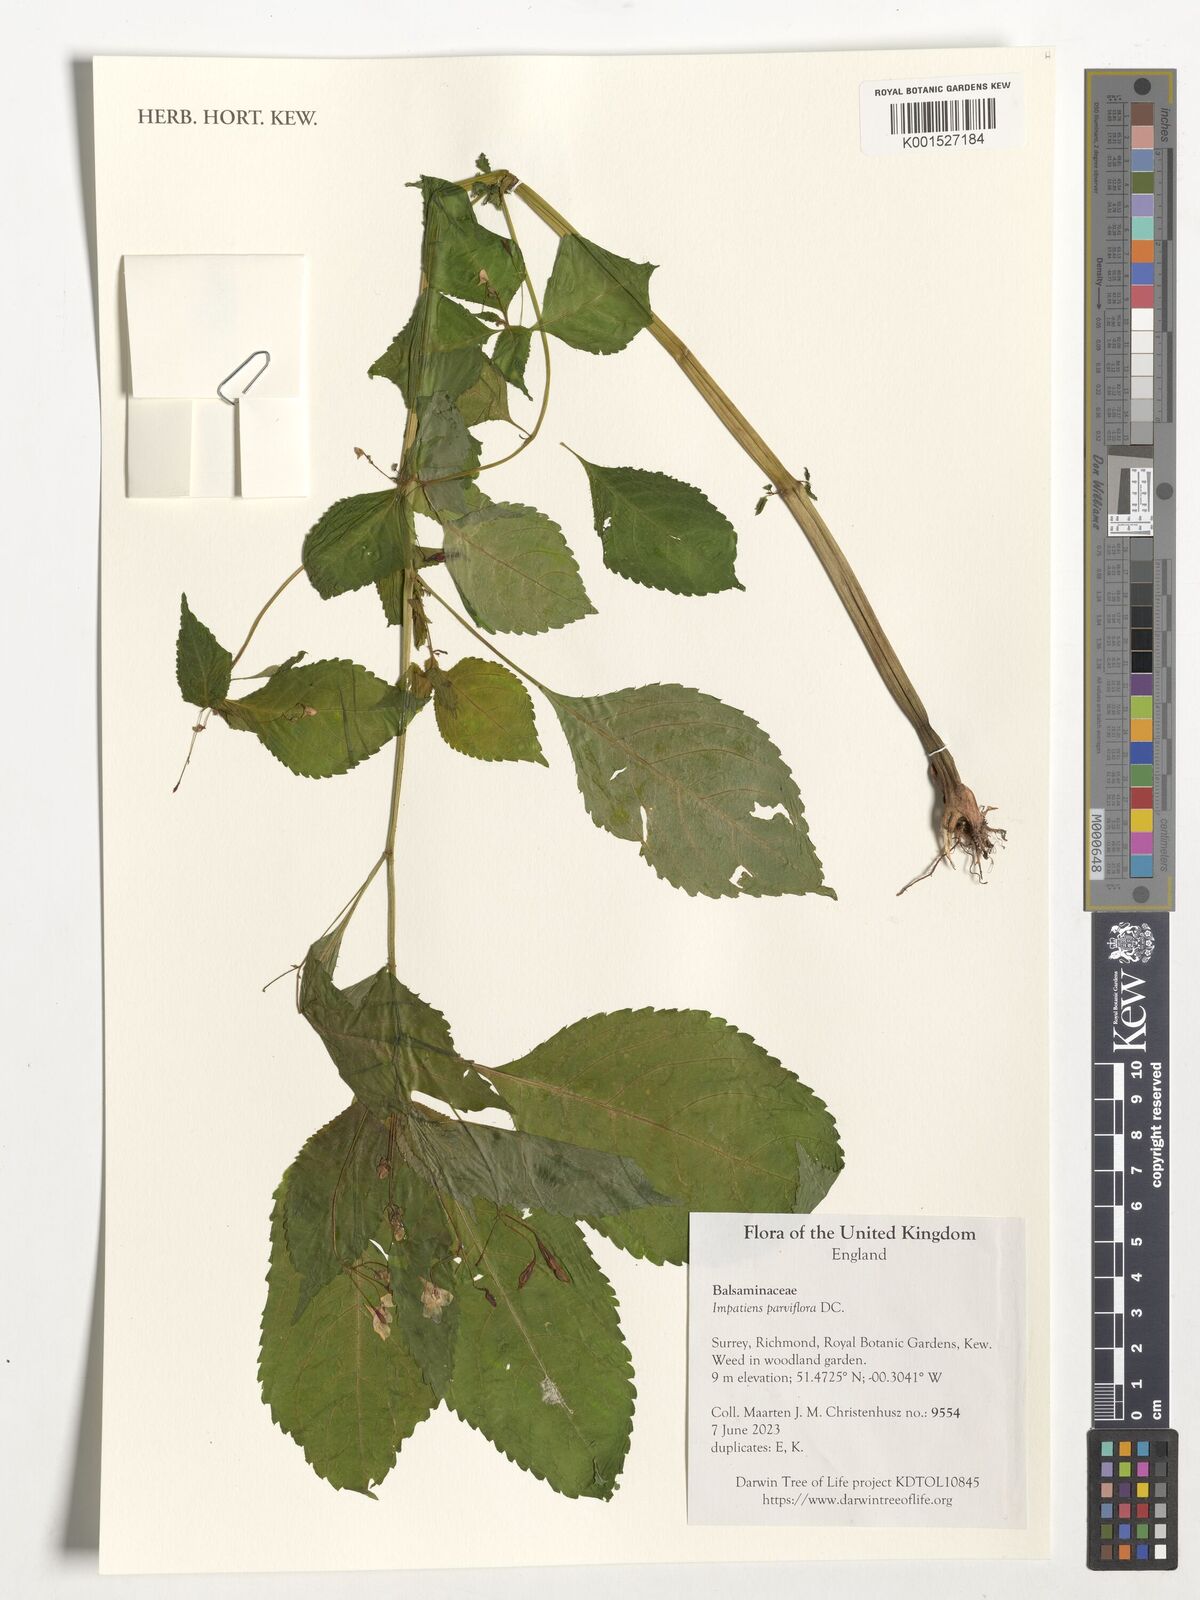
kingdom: Plantae
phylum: Tracheophyta
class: Magnoliopsida
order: Ericales
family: Balsaminaceae
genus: Impatiens
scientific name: Impatiens parviflora
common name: Small balsam
